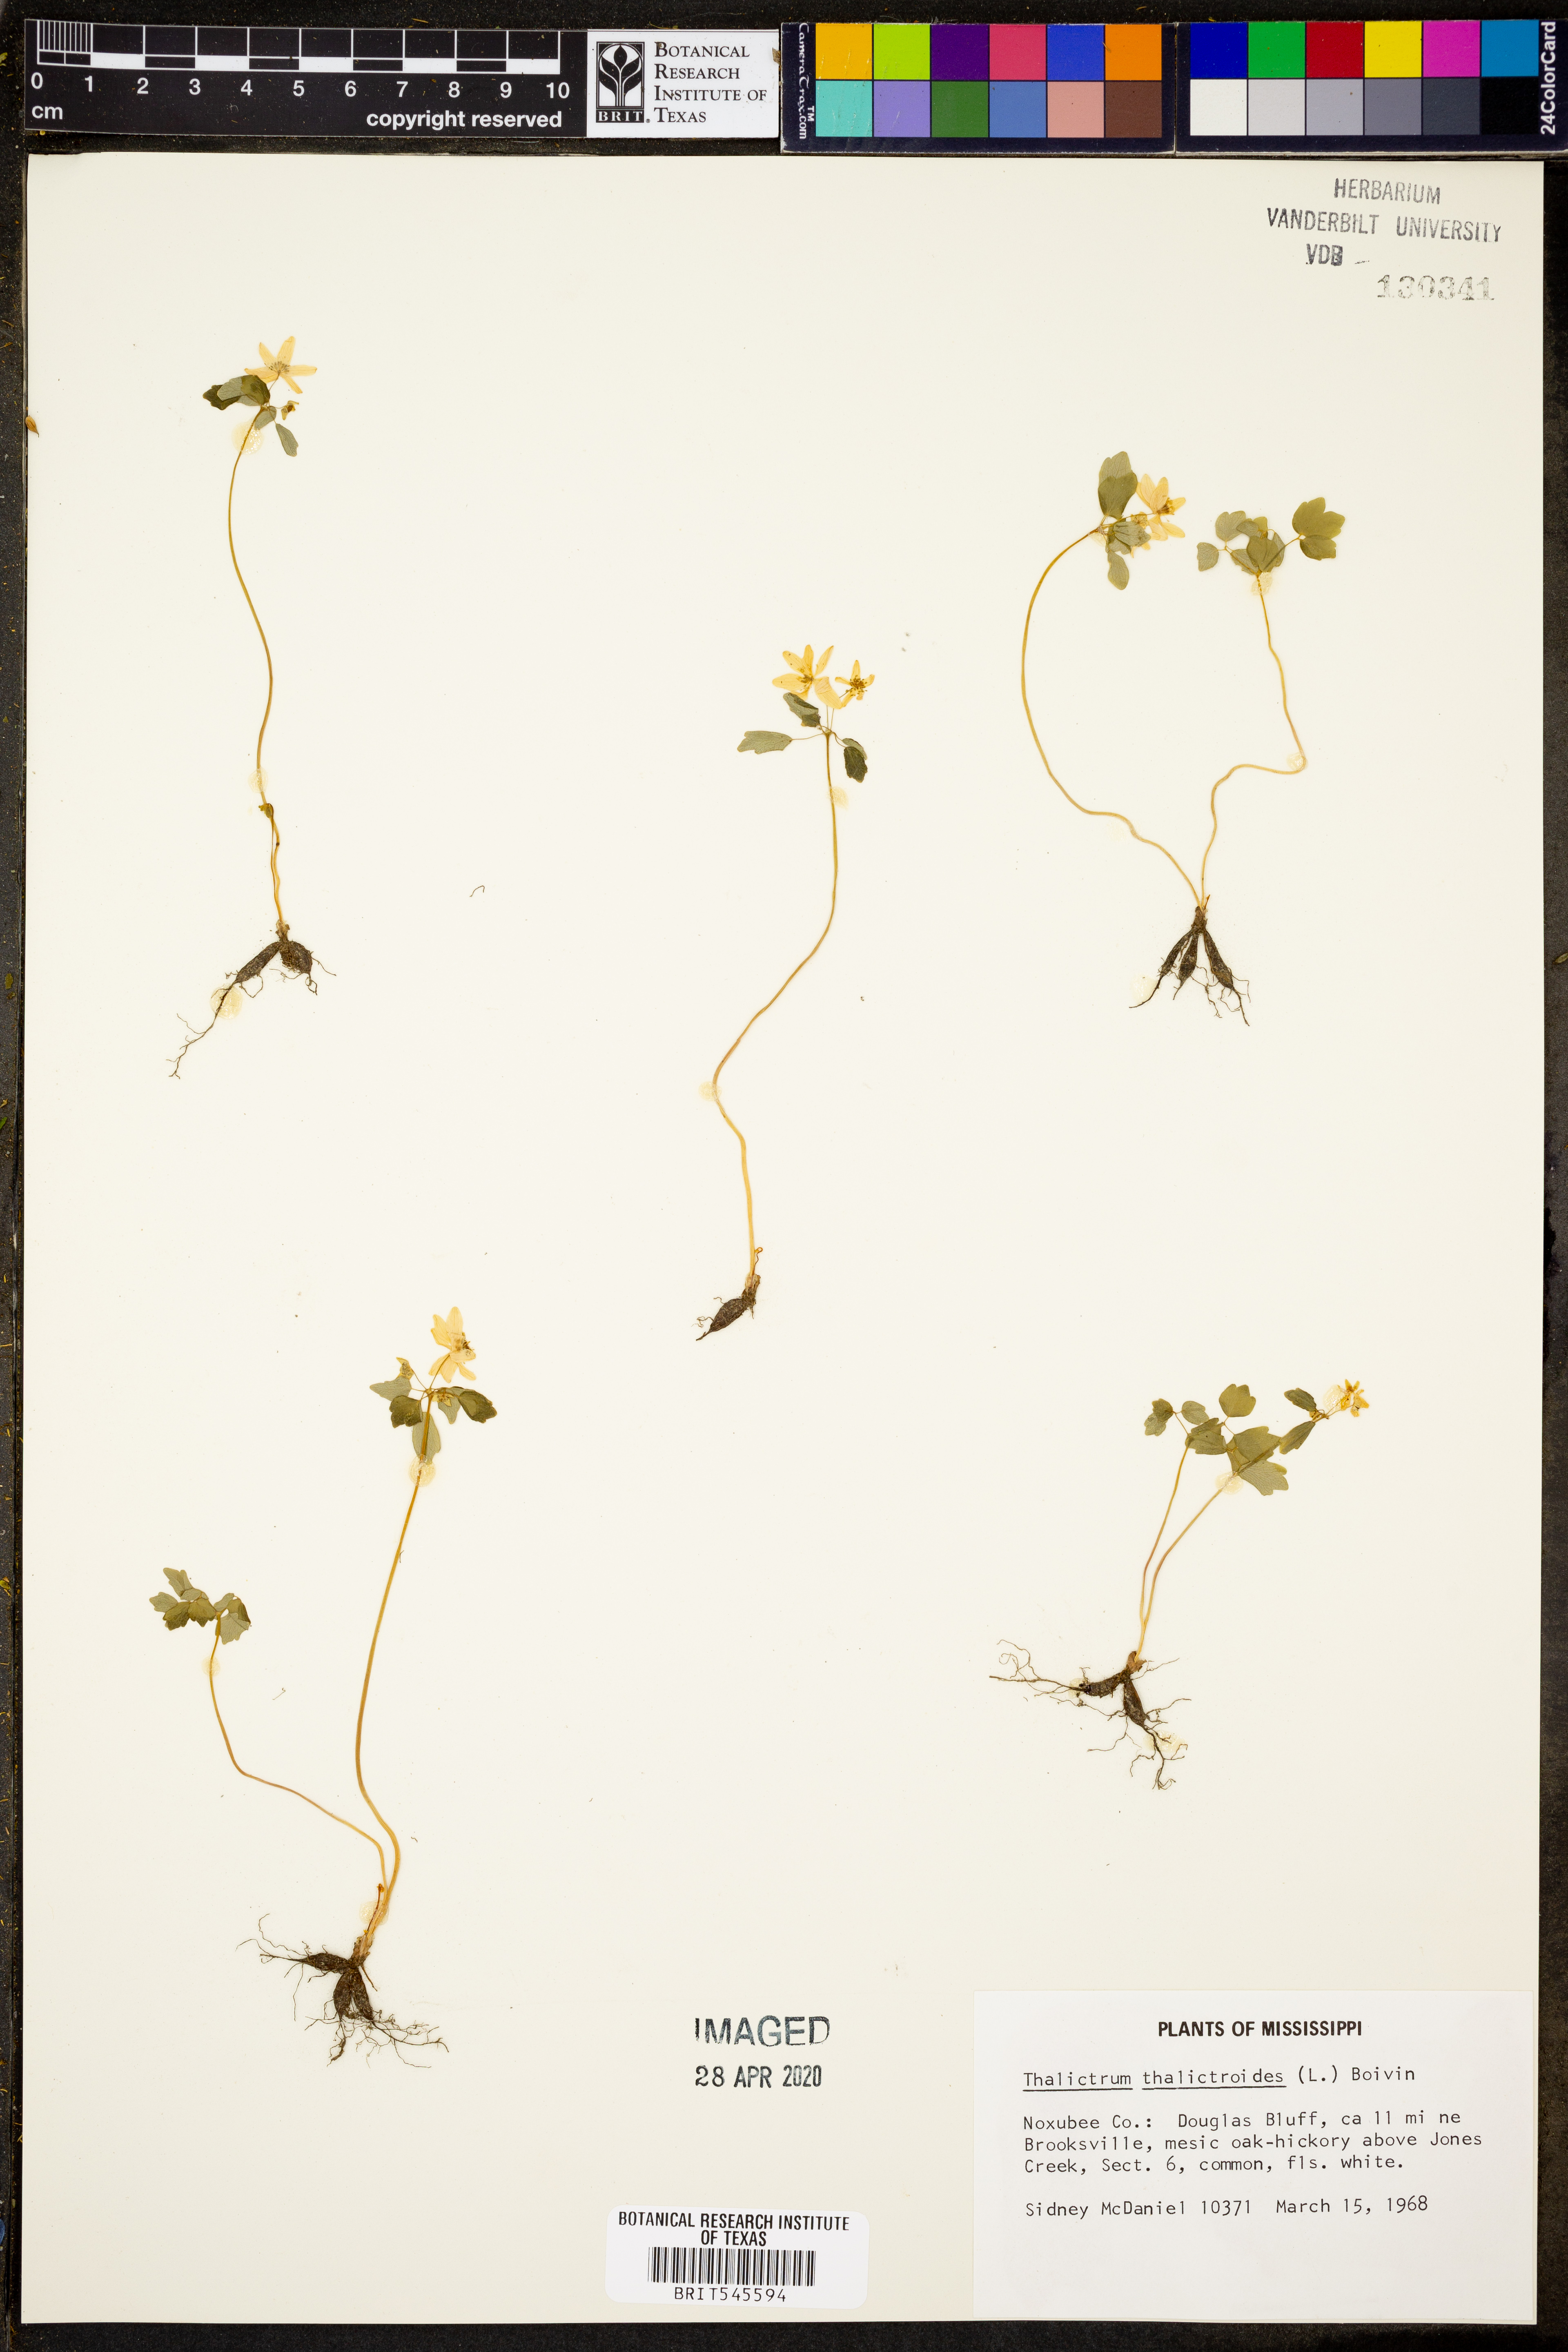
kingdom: Plantae
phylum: Tracheophyta
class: Magnoliopsida
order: Ranunculales
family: Ranunculaceae
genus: Thalictrum
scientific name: Thalictrum thalictroides
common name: Rue-anemone
